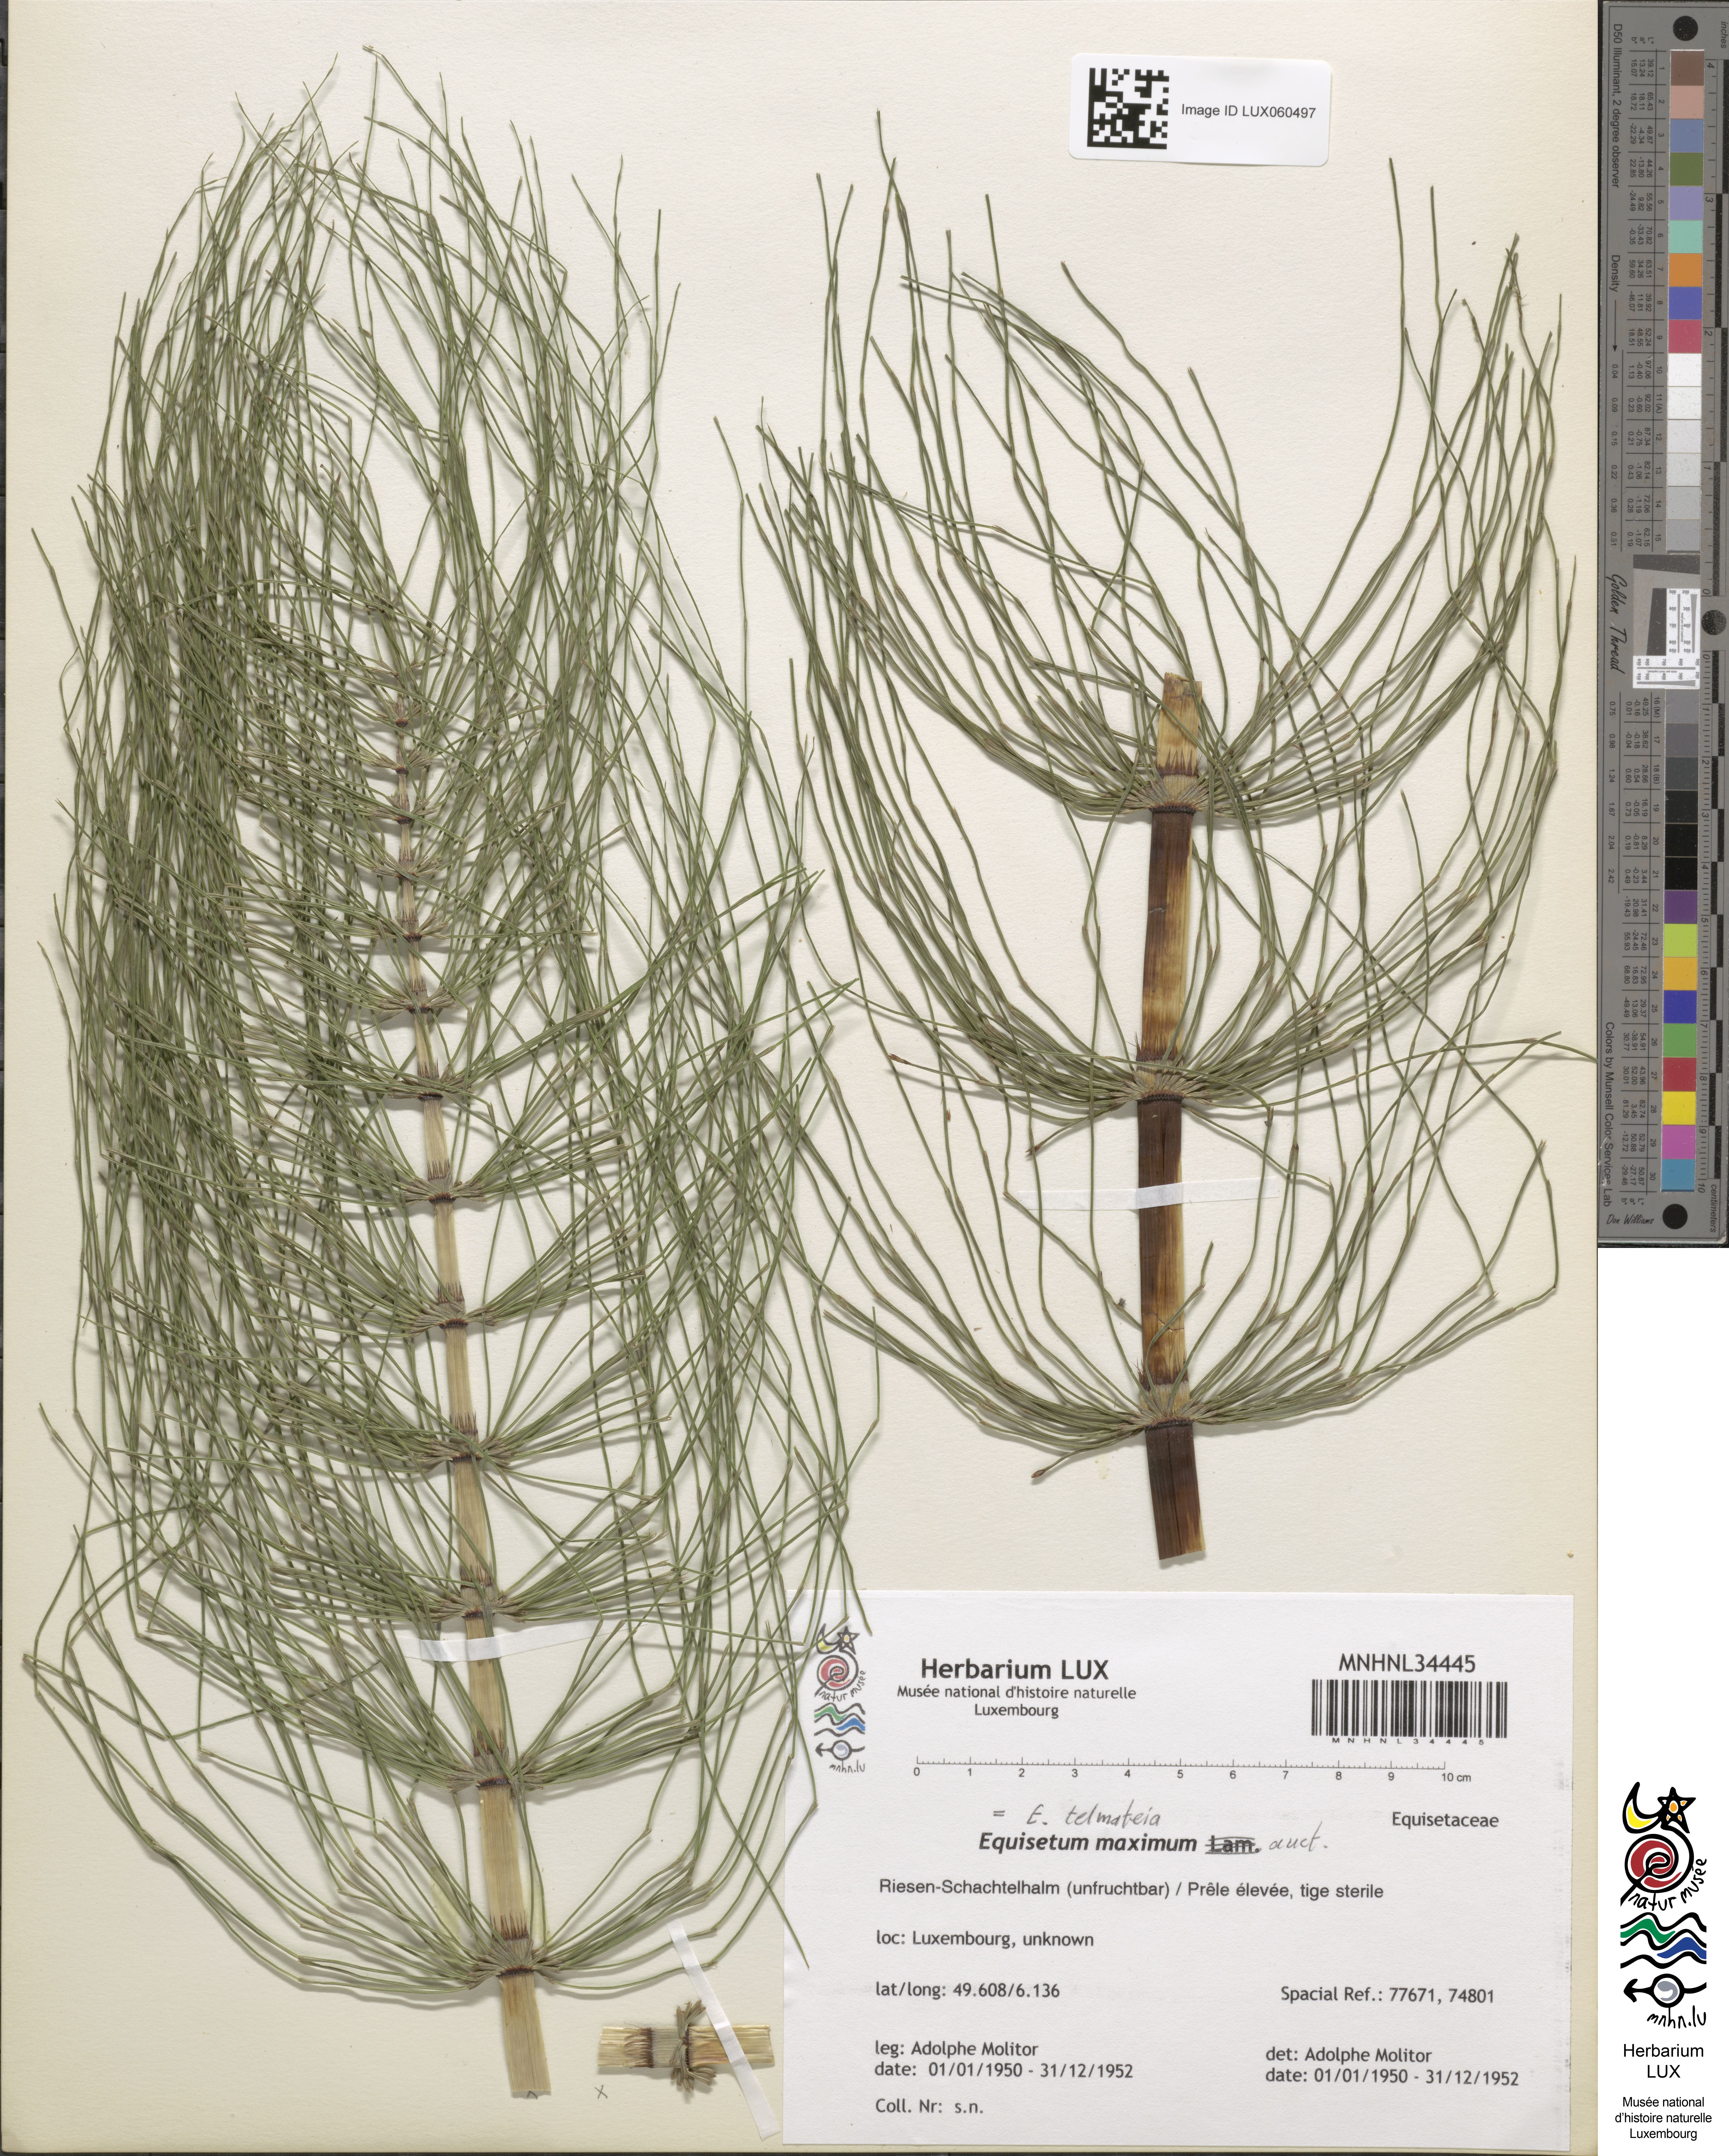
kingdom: Plantae
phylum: Tracheophyta
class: Polypodiopsida
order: Equisetales
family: Equisetaceae
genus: Equisetum
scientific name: Equisetum telmateia
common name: Great horsetail
